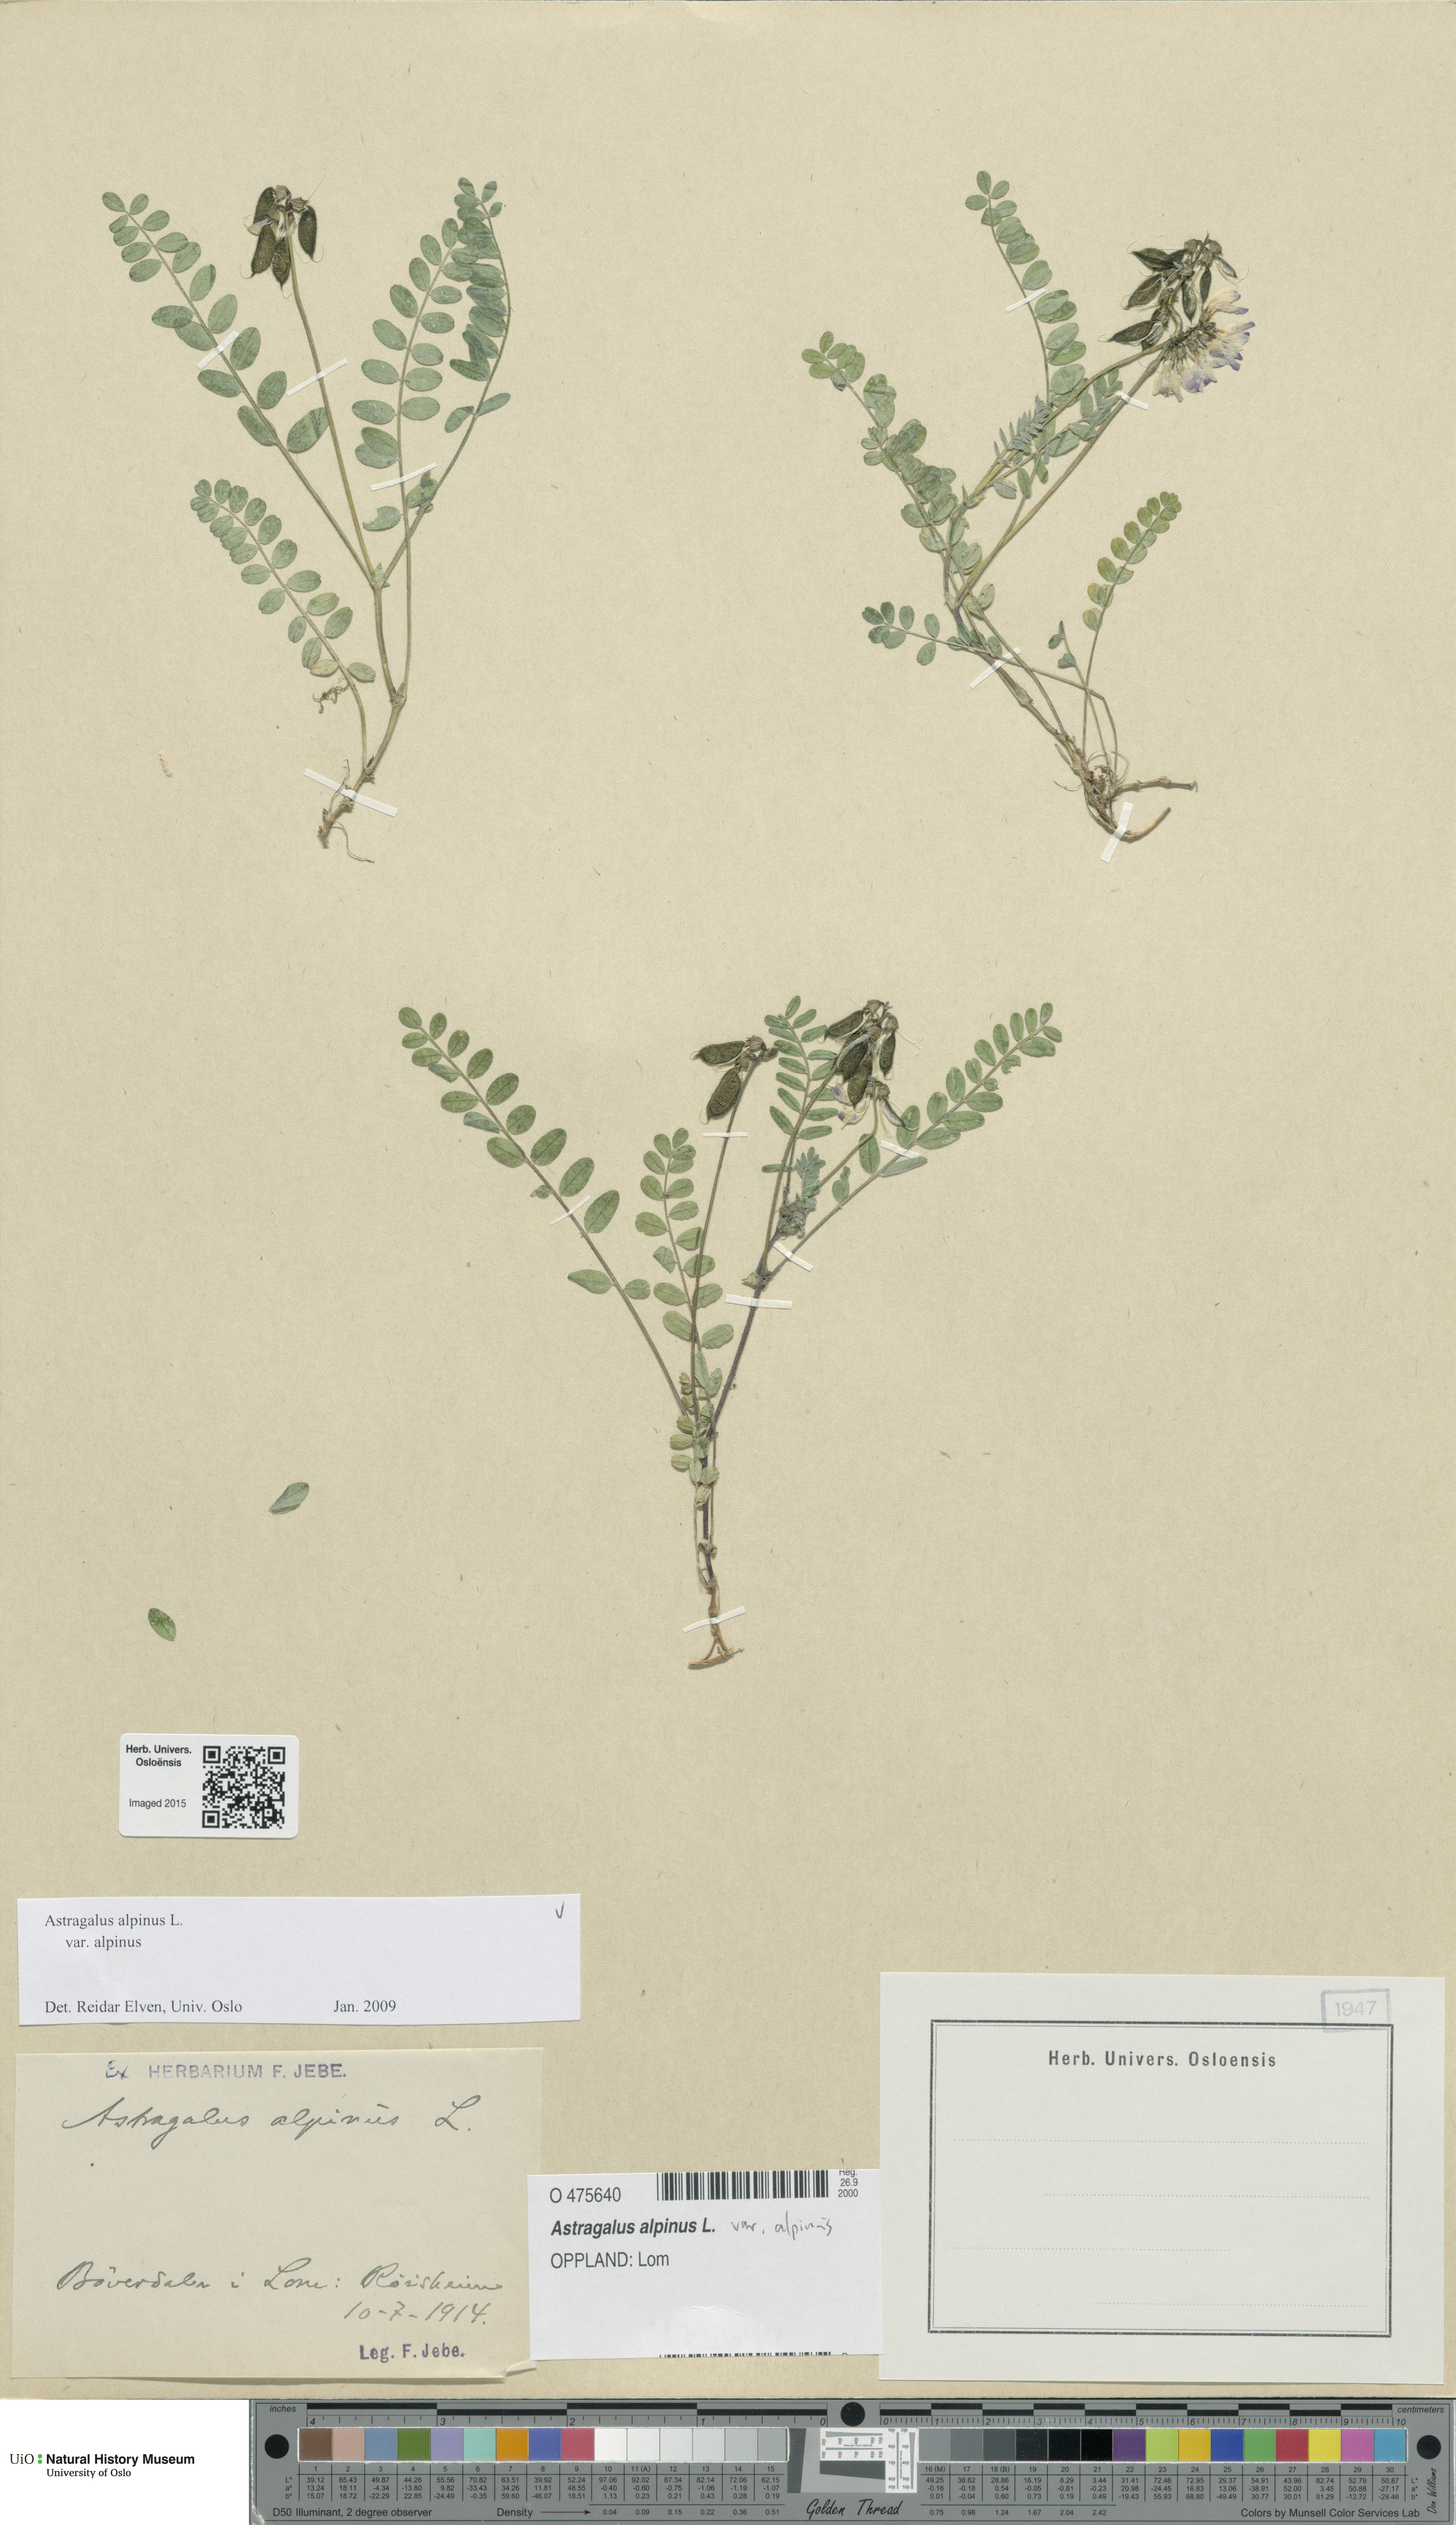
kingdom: Plantae
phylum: Tracheophyta
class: Magnoliopsida
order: Fabales
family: Fabaceae
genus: Astragalus
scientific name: Astragalus alpinus
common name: Alpine milk-vetch
